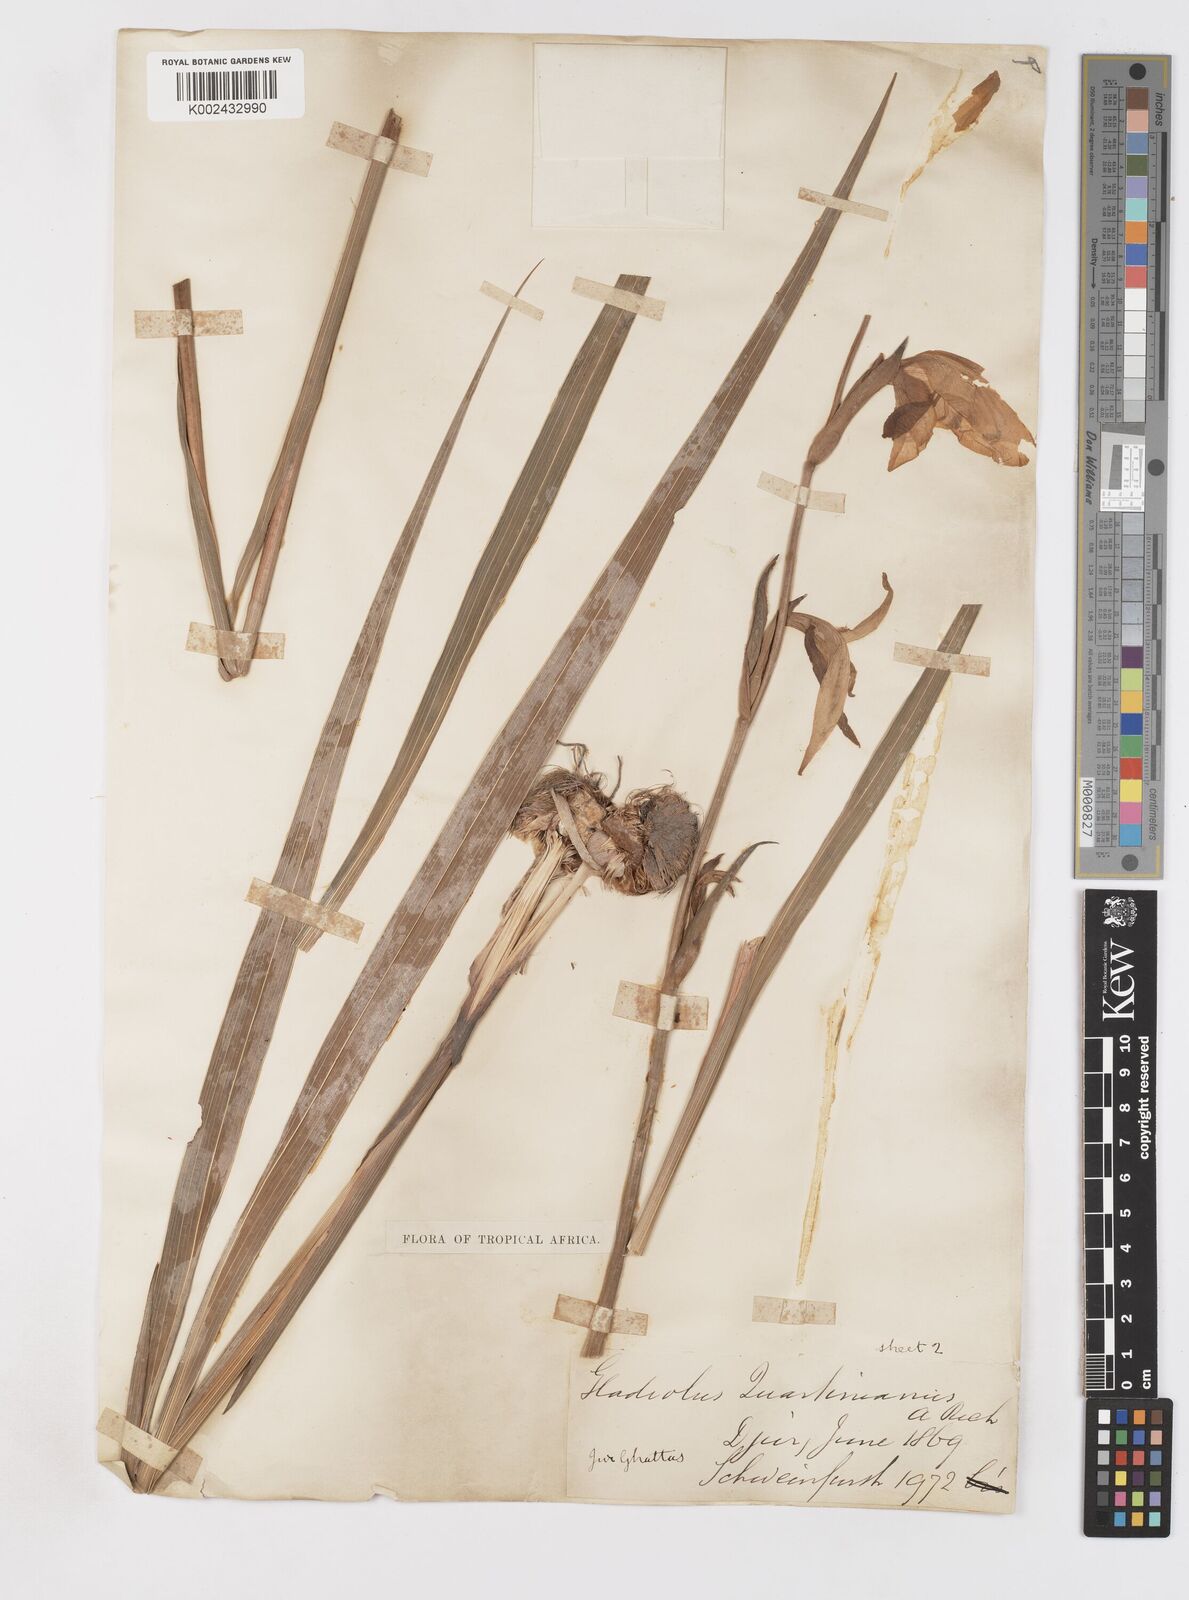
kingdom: Plantae
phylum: Tracheophyta
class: Liliopsida
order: Asparagales
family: Iridaceae
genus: Gladiolus
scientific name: Gladiolus dalenii
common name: Cornflag
